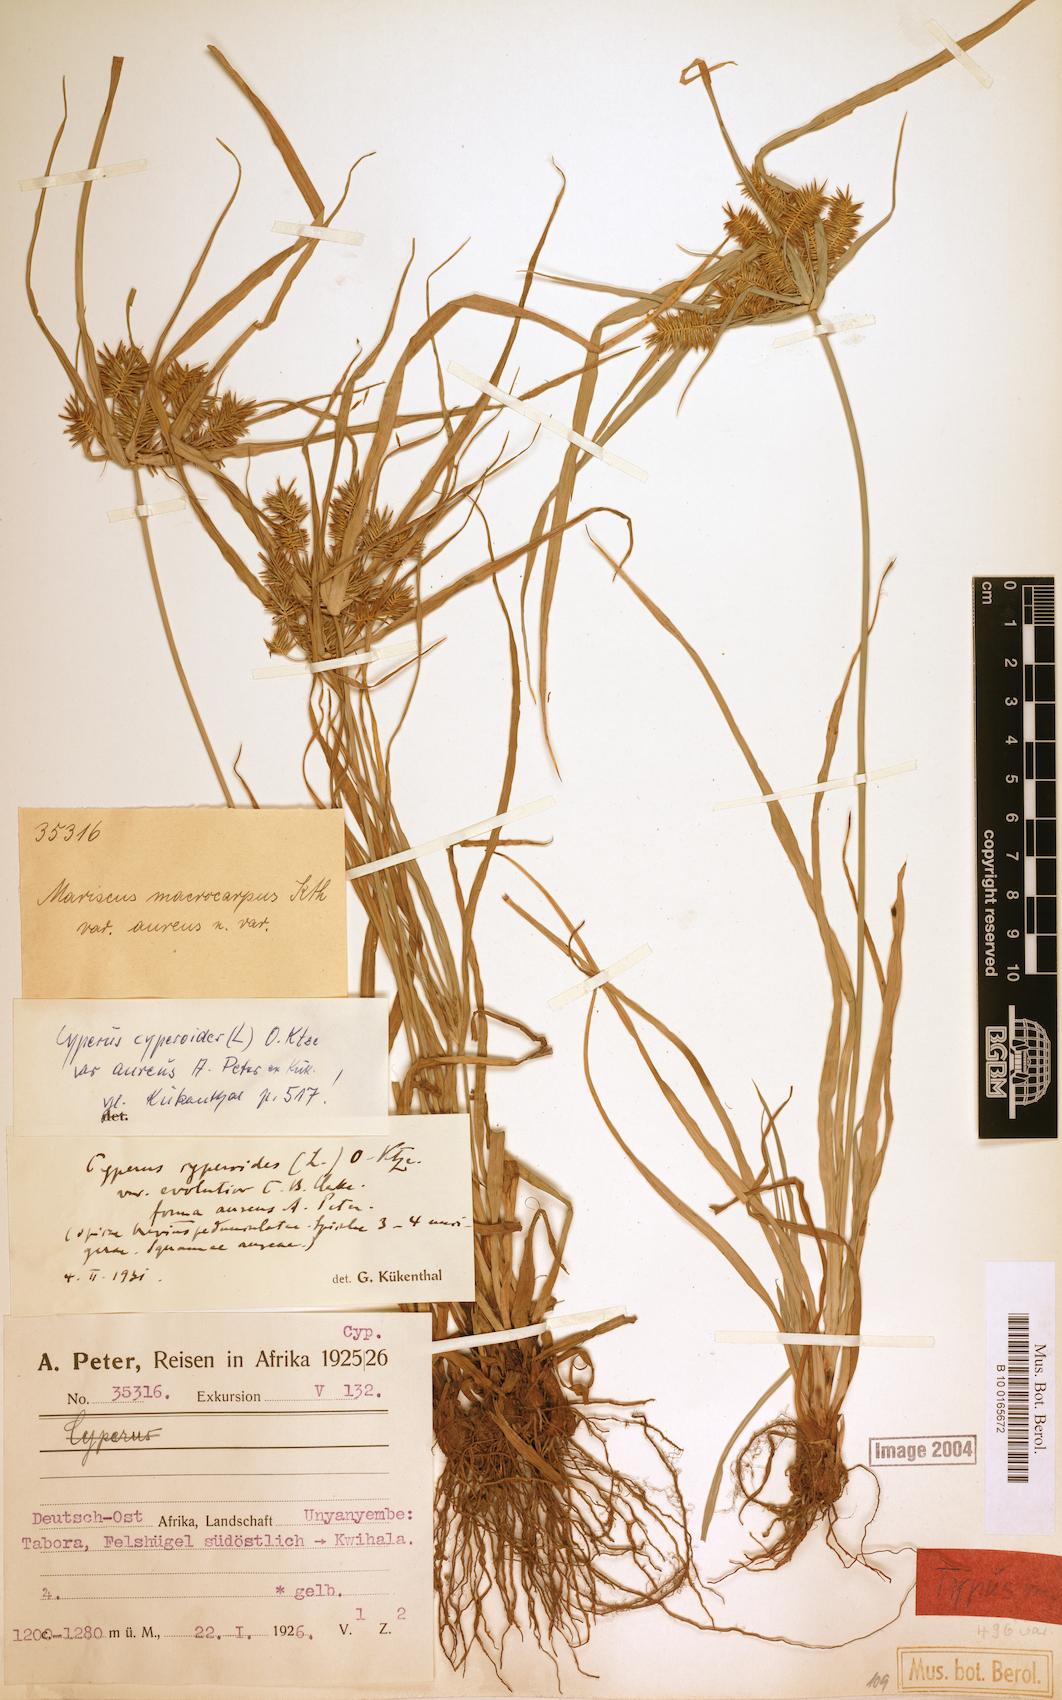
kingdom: Plantae
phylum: Tracheophyta
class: Liliopsida
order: Poales
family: Cyperaceae
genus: Cyperus
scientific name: Cyperus cyperoides
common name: Pacific island flat sedge
